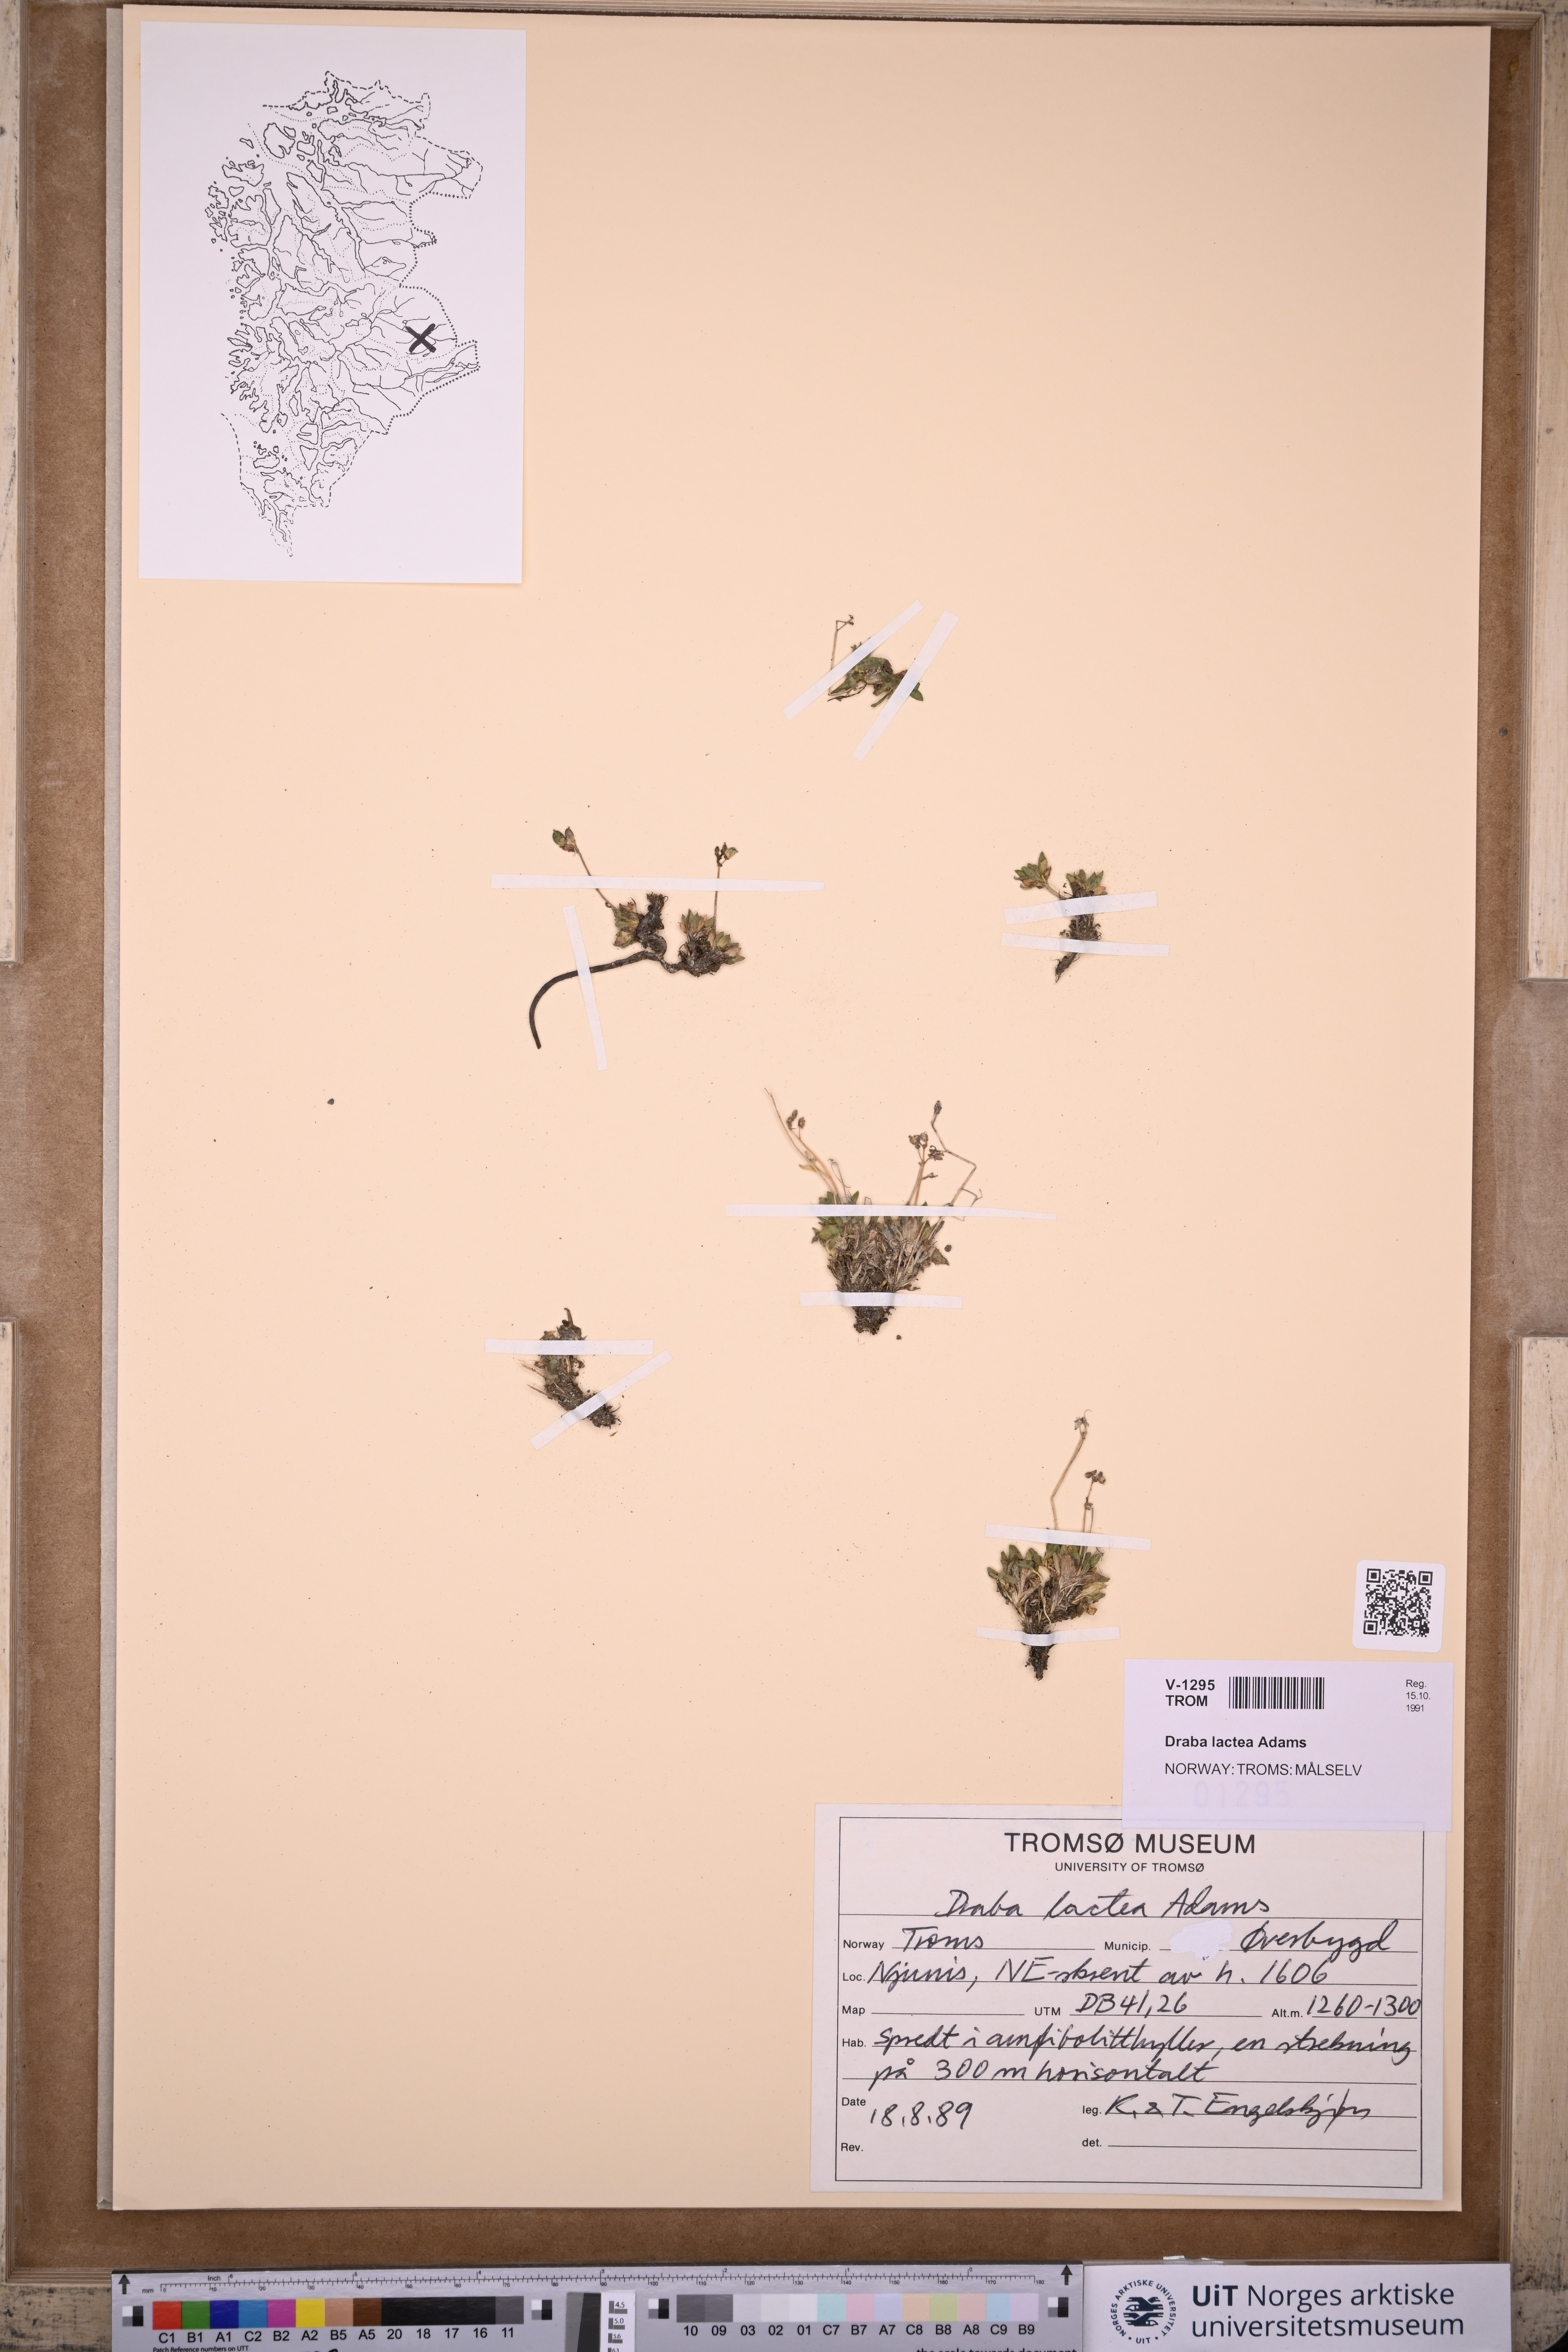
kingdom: Plantae
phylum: Tracheophyta
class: Magnoliopsida
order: Brassicales
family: Brassicaceae
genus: Draba
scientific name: Draba lactea
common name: Milky draba
